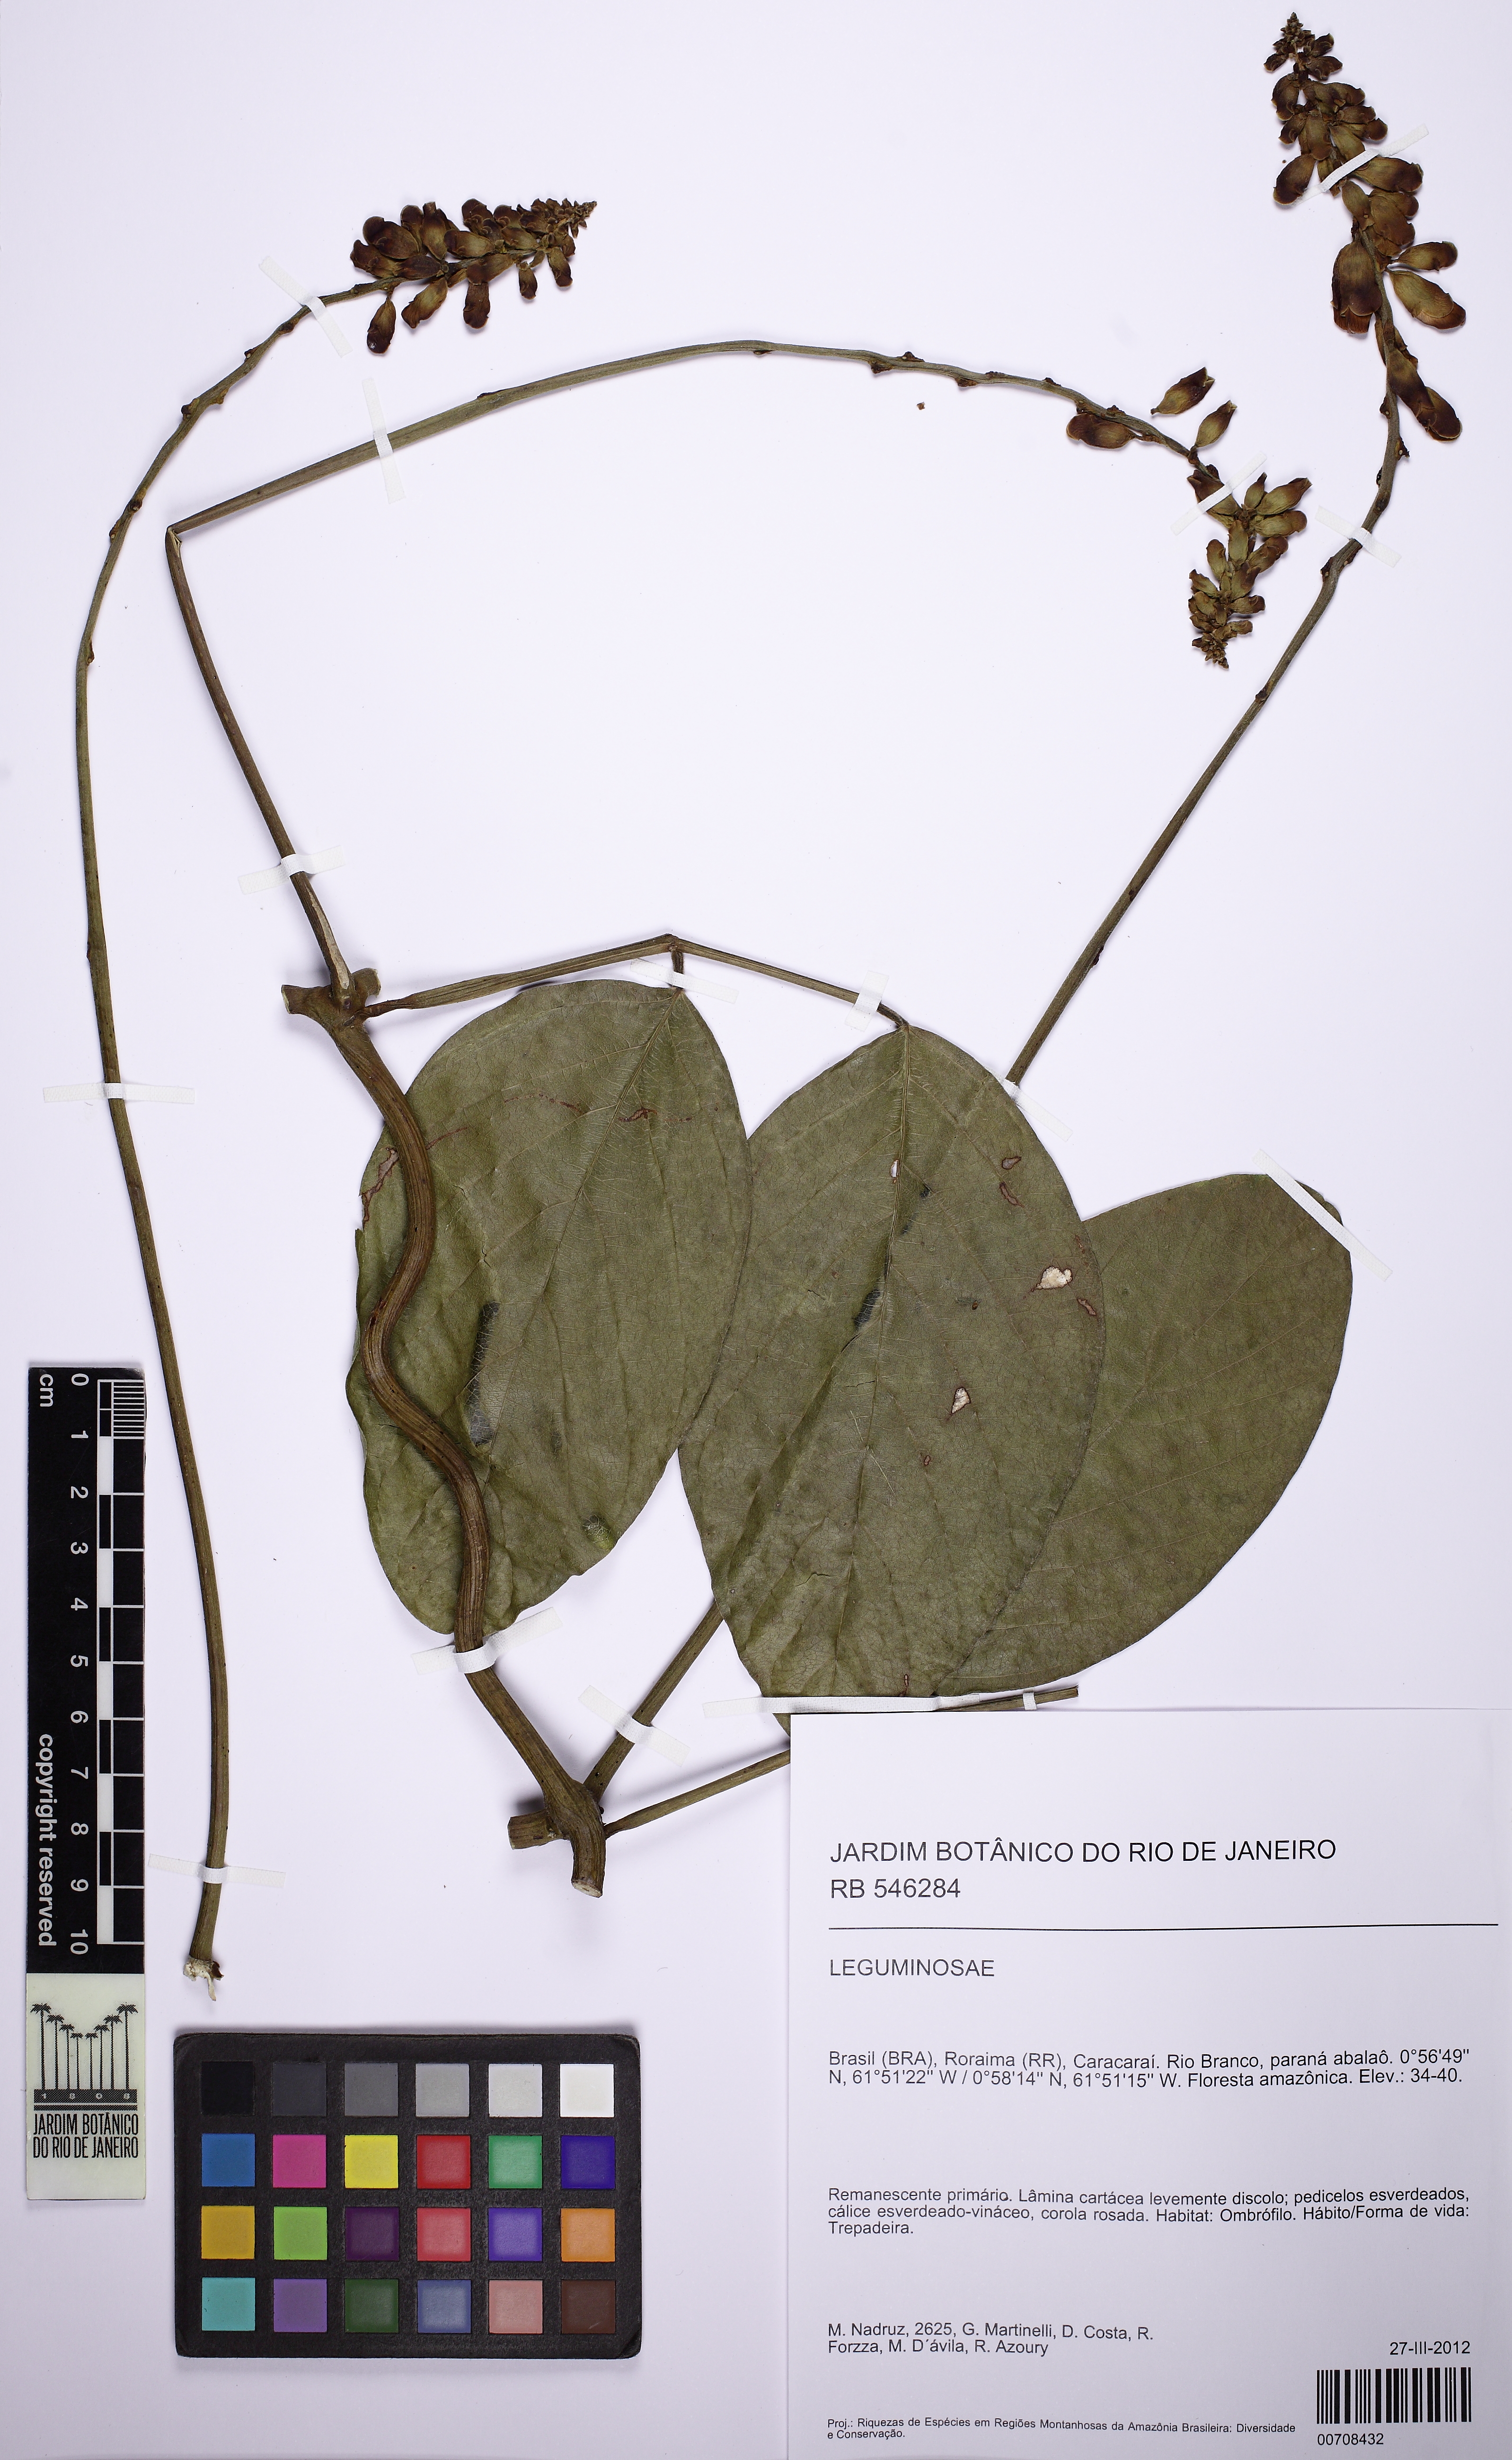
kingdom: Plantae
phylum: Tracheophyta
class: Magnoliopsida
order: Fabales
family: Fabaceae
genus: Dioclea
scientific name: Dioclea
